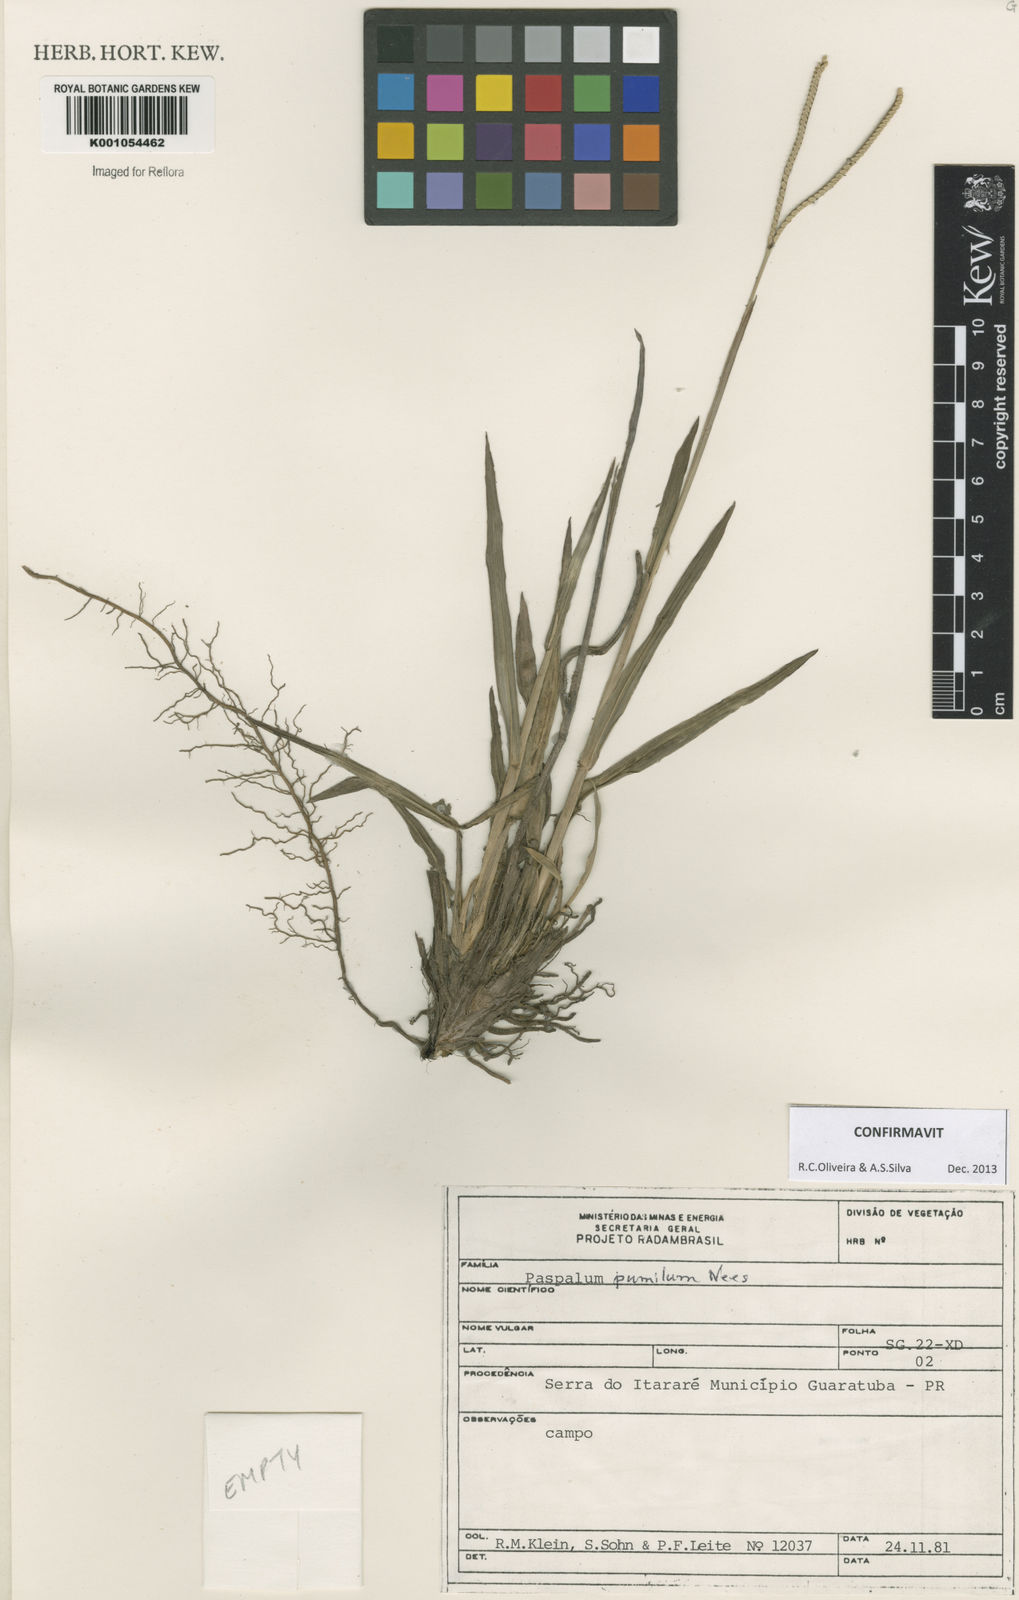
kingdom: Plantae
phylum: Tracheophyta
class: Liliopsida
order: Poales
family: Poaceae
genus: Paspalum
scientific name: Paspalum pumilum
